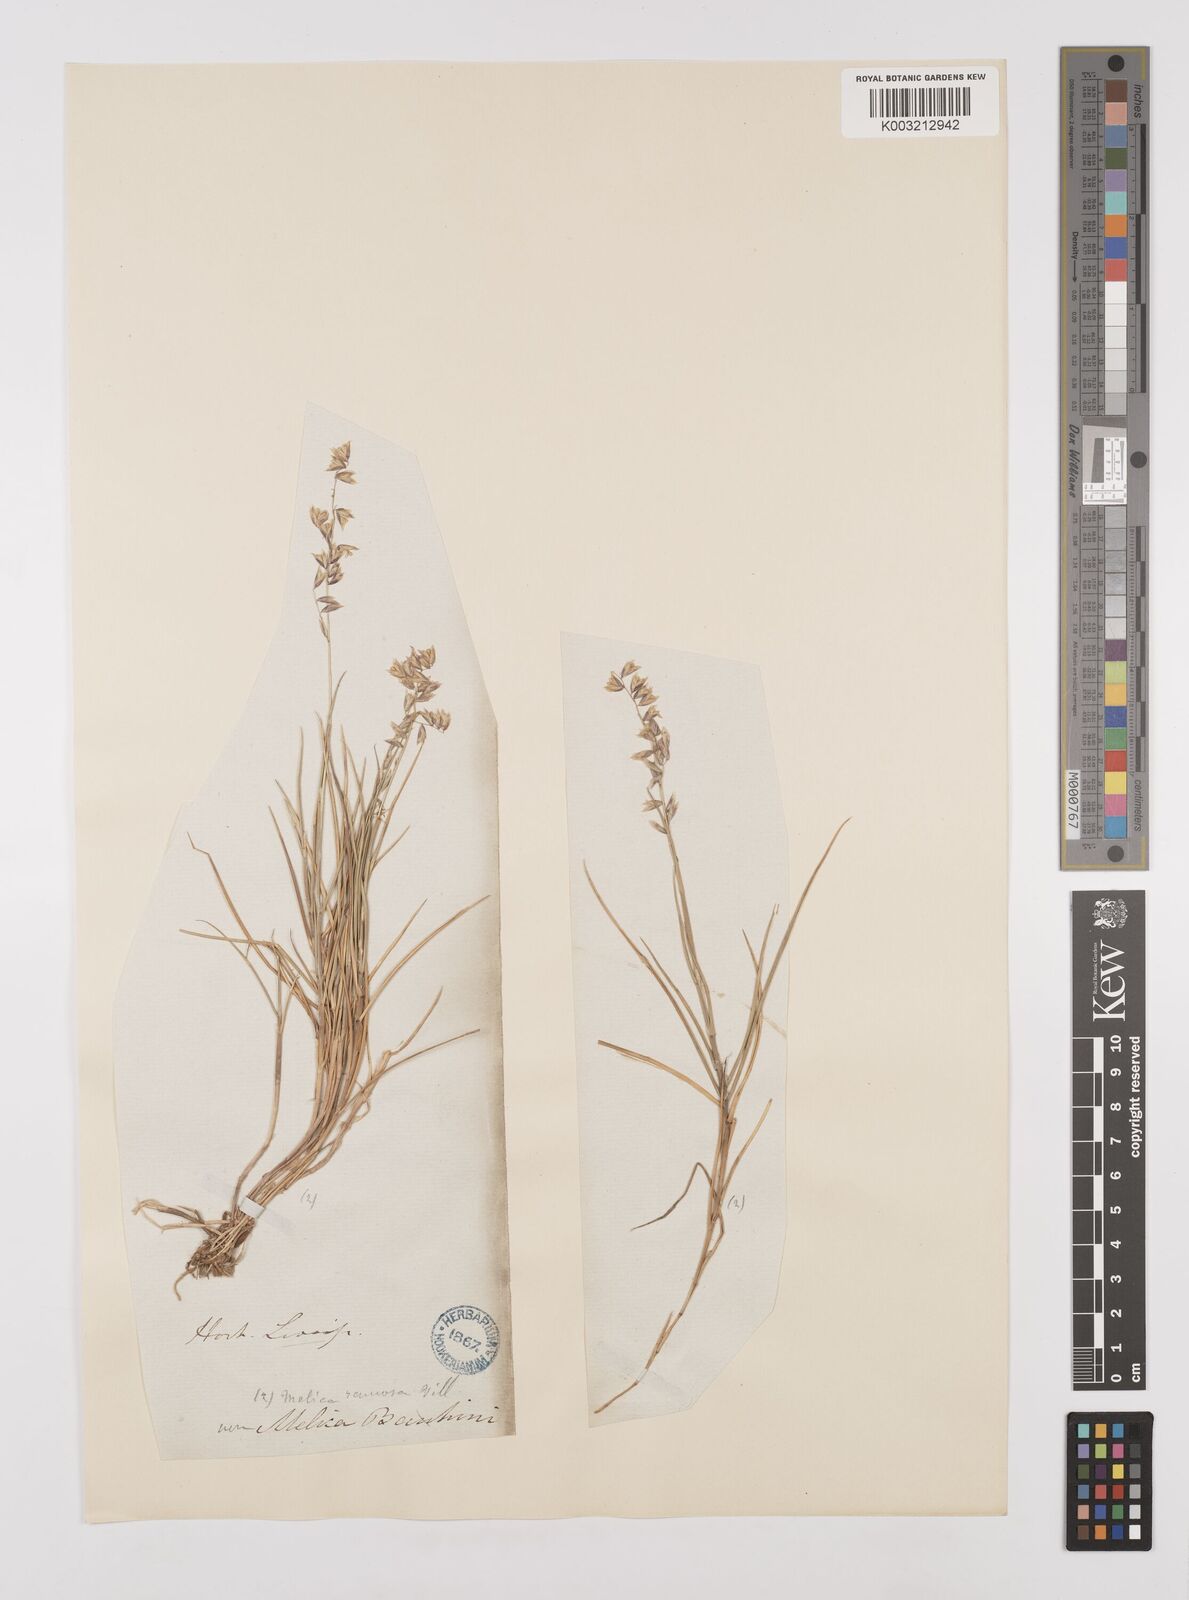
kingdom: Plantae
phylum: Tracheophyta
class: Liliopsida
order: Poales
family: Poaceae
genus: Melica
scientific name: Melica minuta
